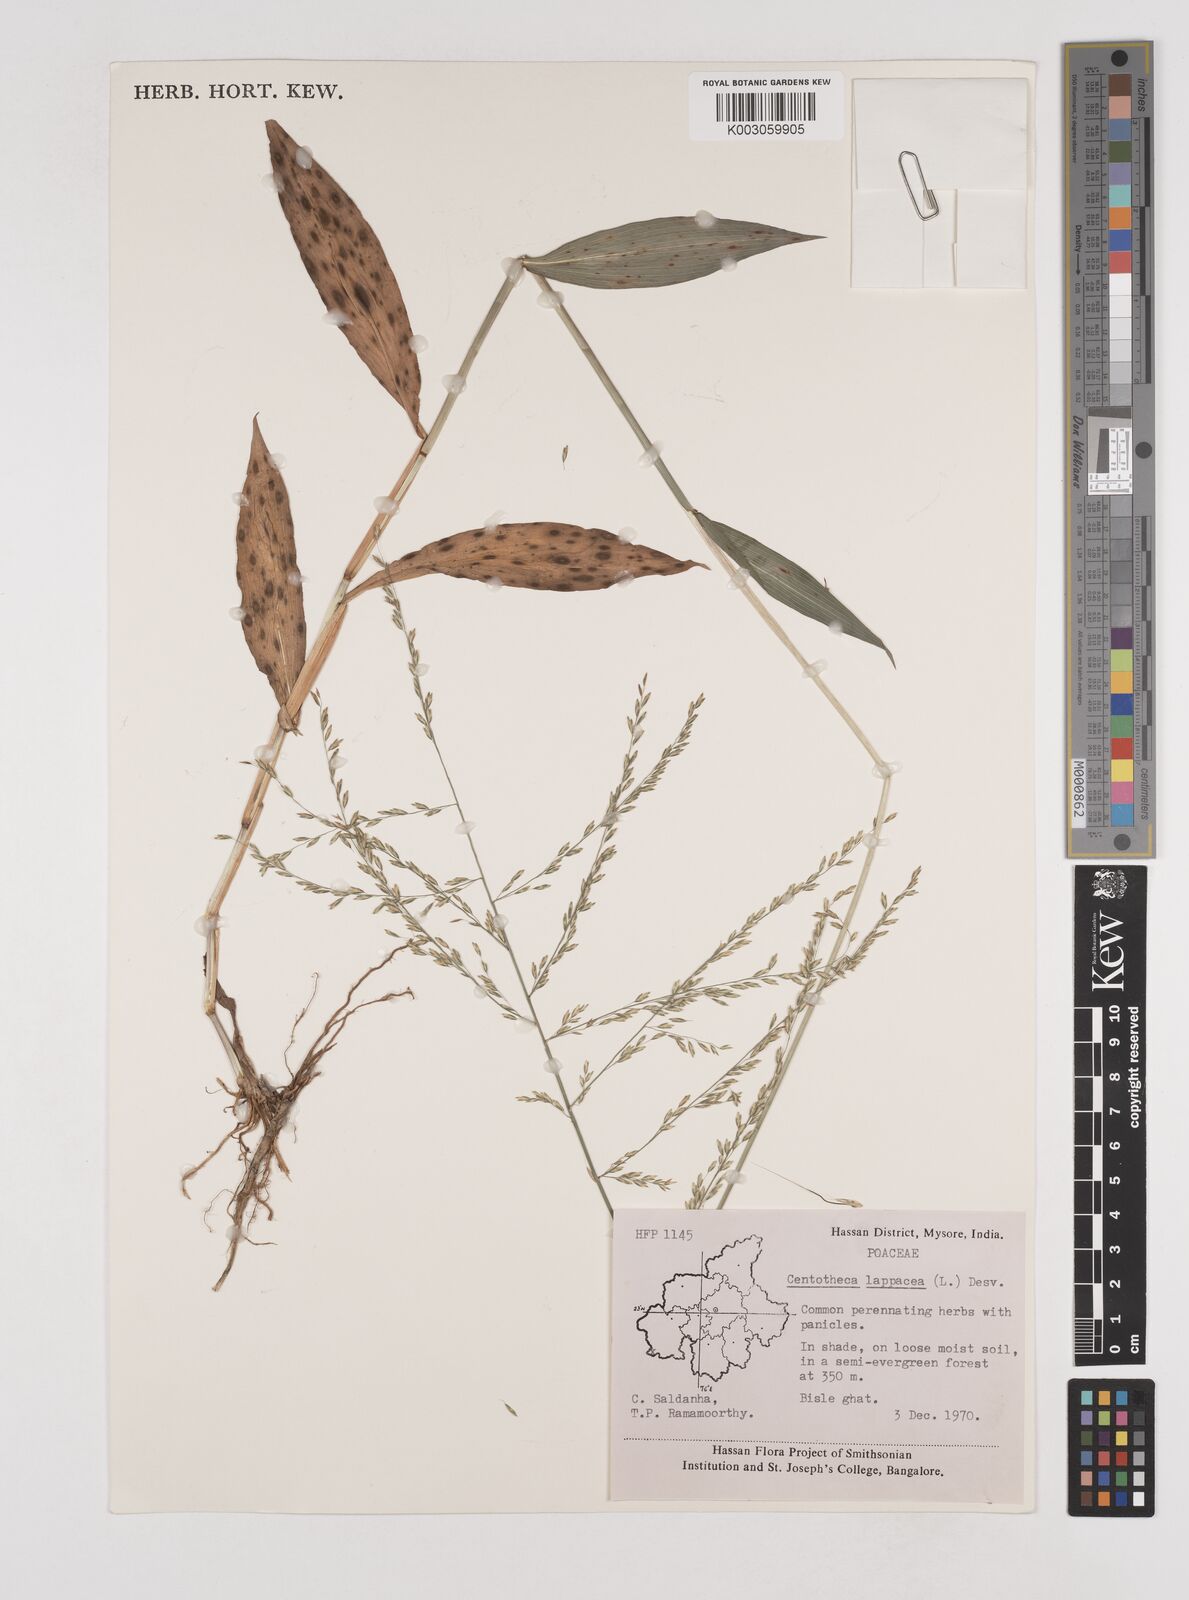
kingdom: Plantae
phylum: Tracheophyta
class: Liliopsida
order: Poales
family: Poaceae
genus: Centotheca
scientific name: Centotheca lappacea
